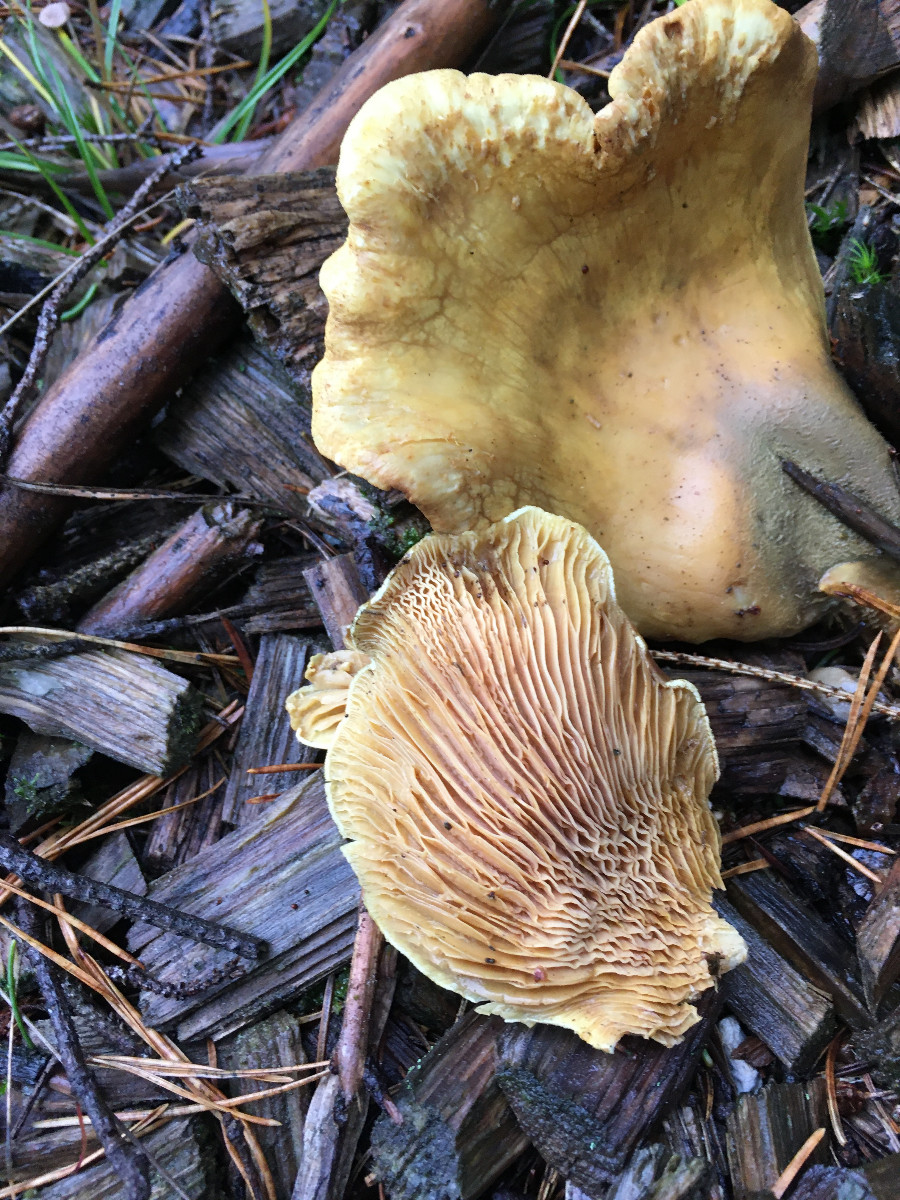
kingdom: Fungi
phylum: Basidiomycota
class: Agaricomycetes
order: Boletales
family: Tapinellaceae
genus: Tapinella
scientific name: Tapinella panuoides
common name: tømmer-viftesvamp
